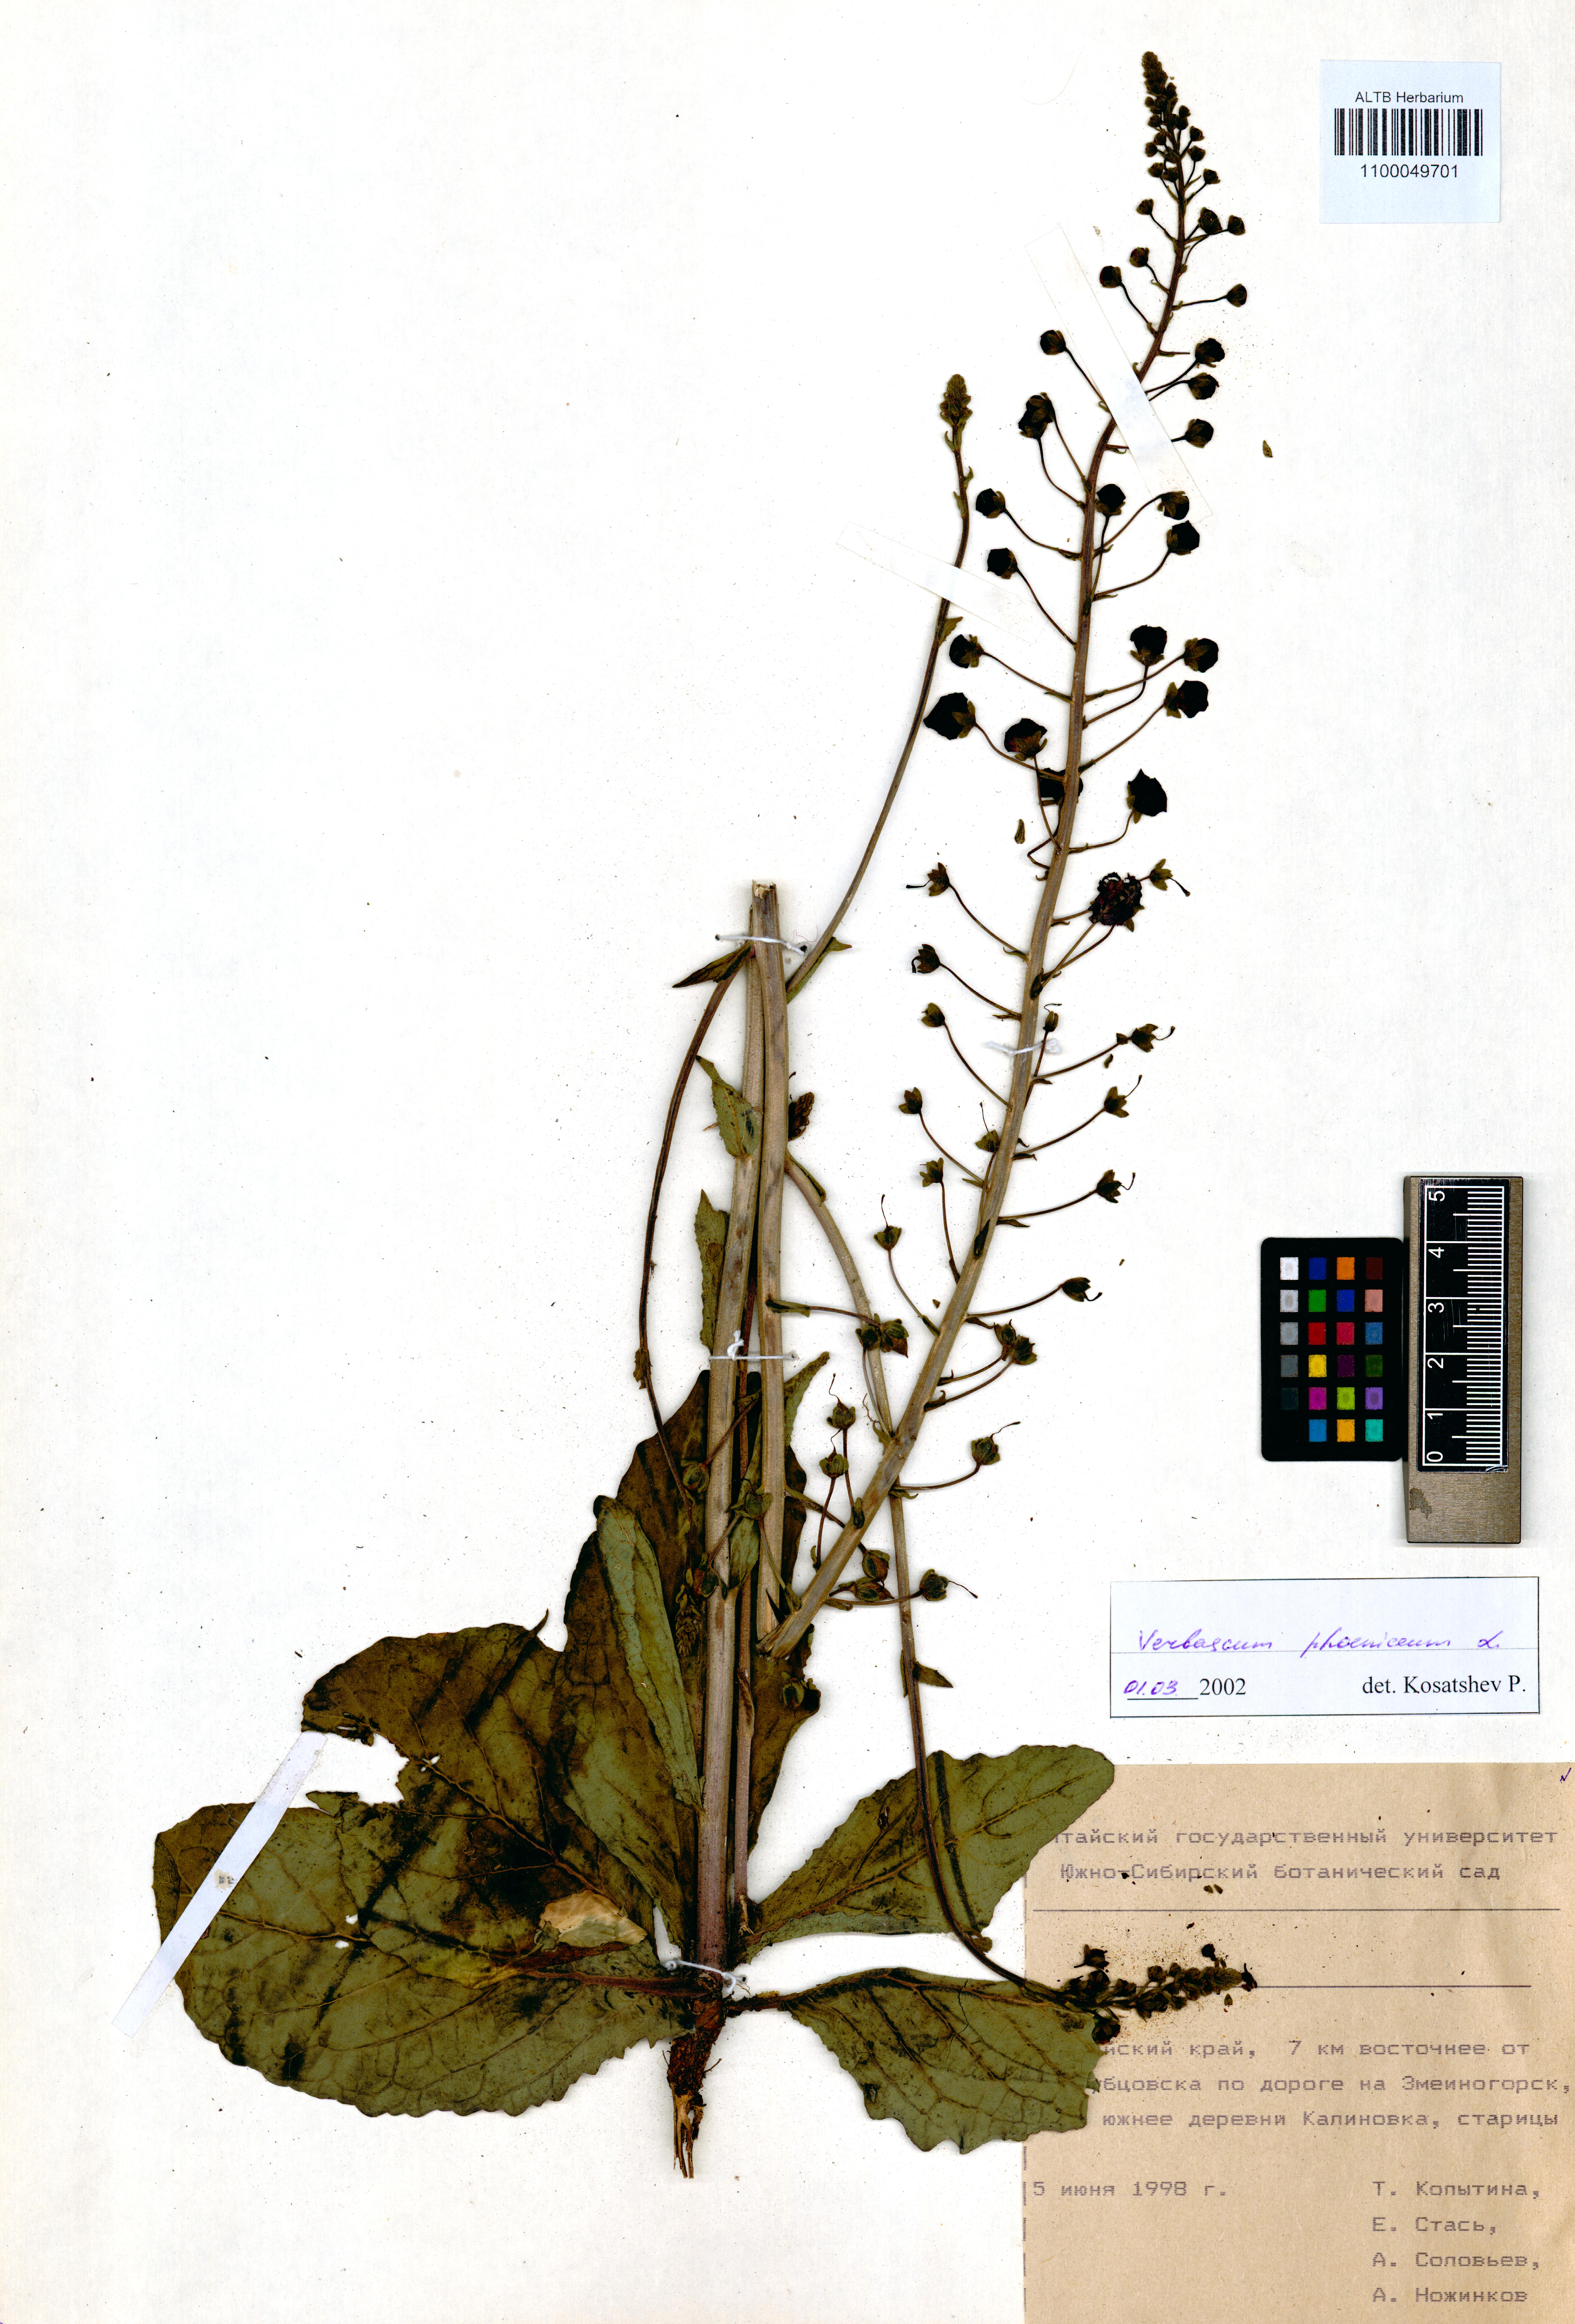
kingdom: Plantae
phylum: Tracheophyta
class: Magnoliopsida
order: Lamiales
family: Scrophulariaceae
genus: Verbascum
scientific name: Verbascum phoeniceum
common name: Purple mullein
